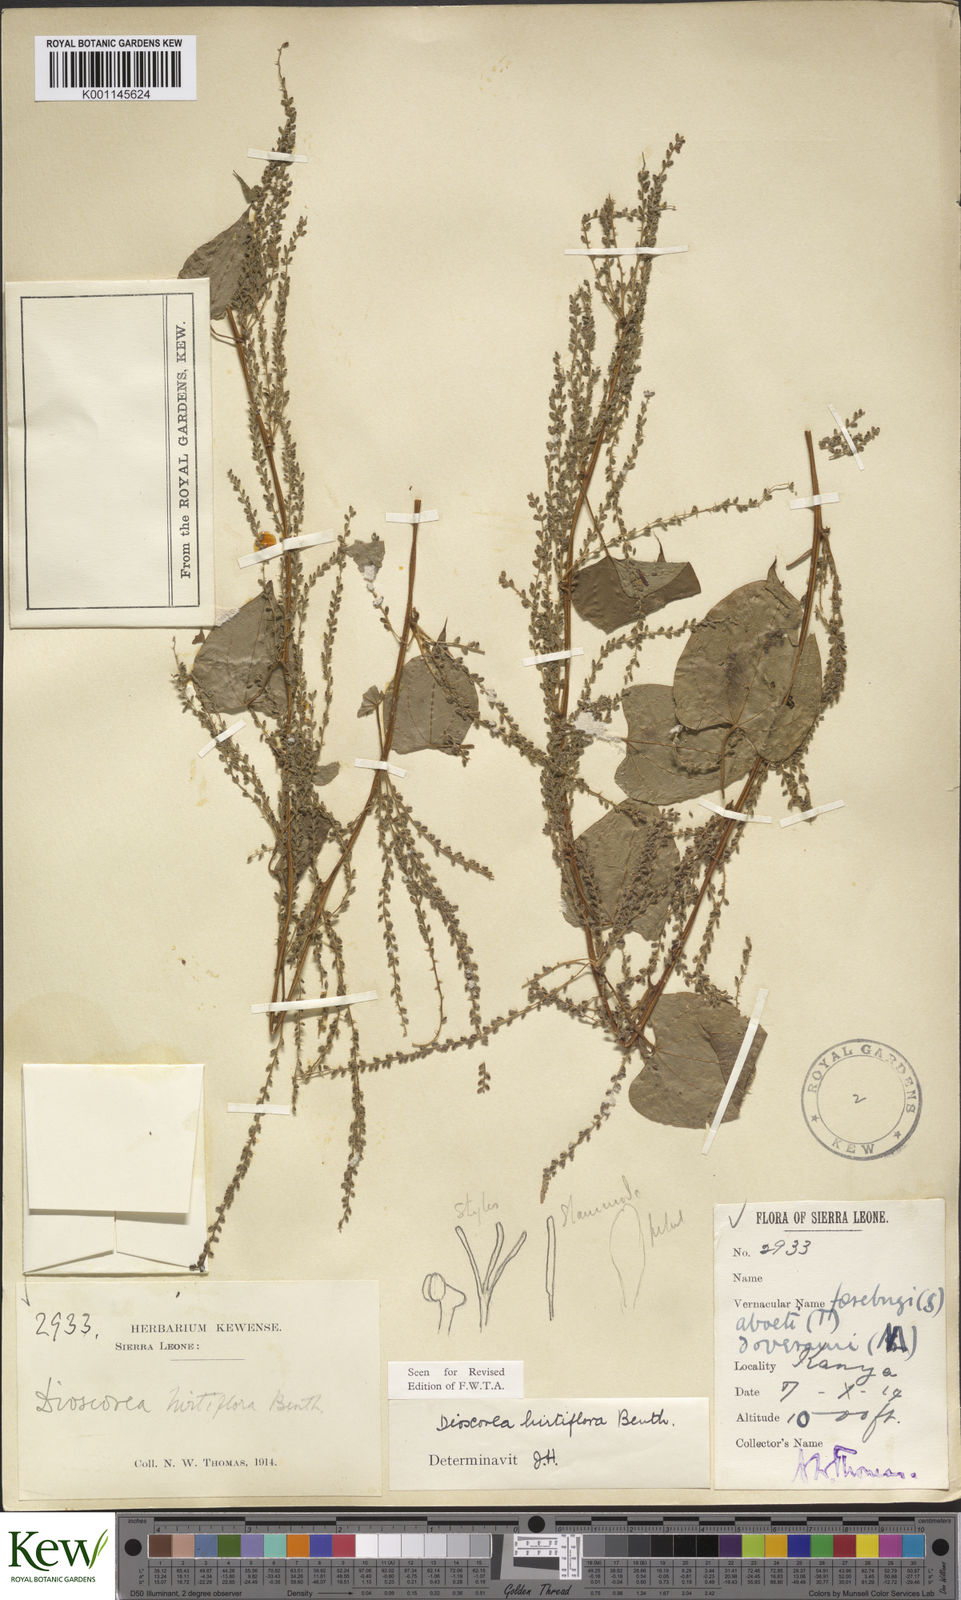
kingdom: Plantae
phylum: Tracheophyta
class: Liliopsida
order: Dioscoreales
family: Dioscoreaceae
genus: Dioscorea
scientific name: Dioscorea hirtiflora
